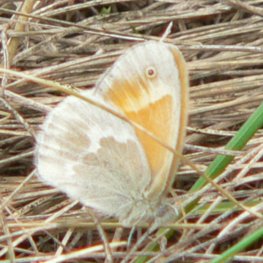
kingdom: Animalia
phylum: Arthropoda
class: Insecta
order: Lepidoptera
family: Nymphalidae
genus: Coenonympha
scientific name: Coenonympha tullia
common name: Large Heath
